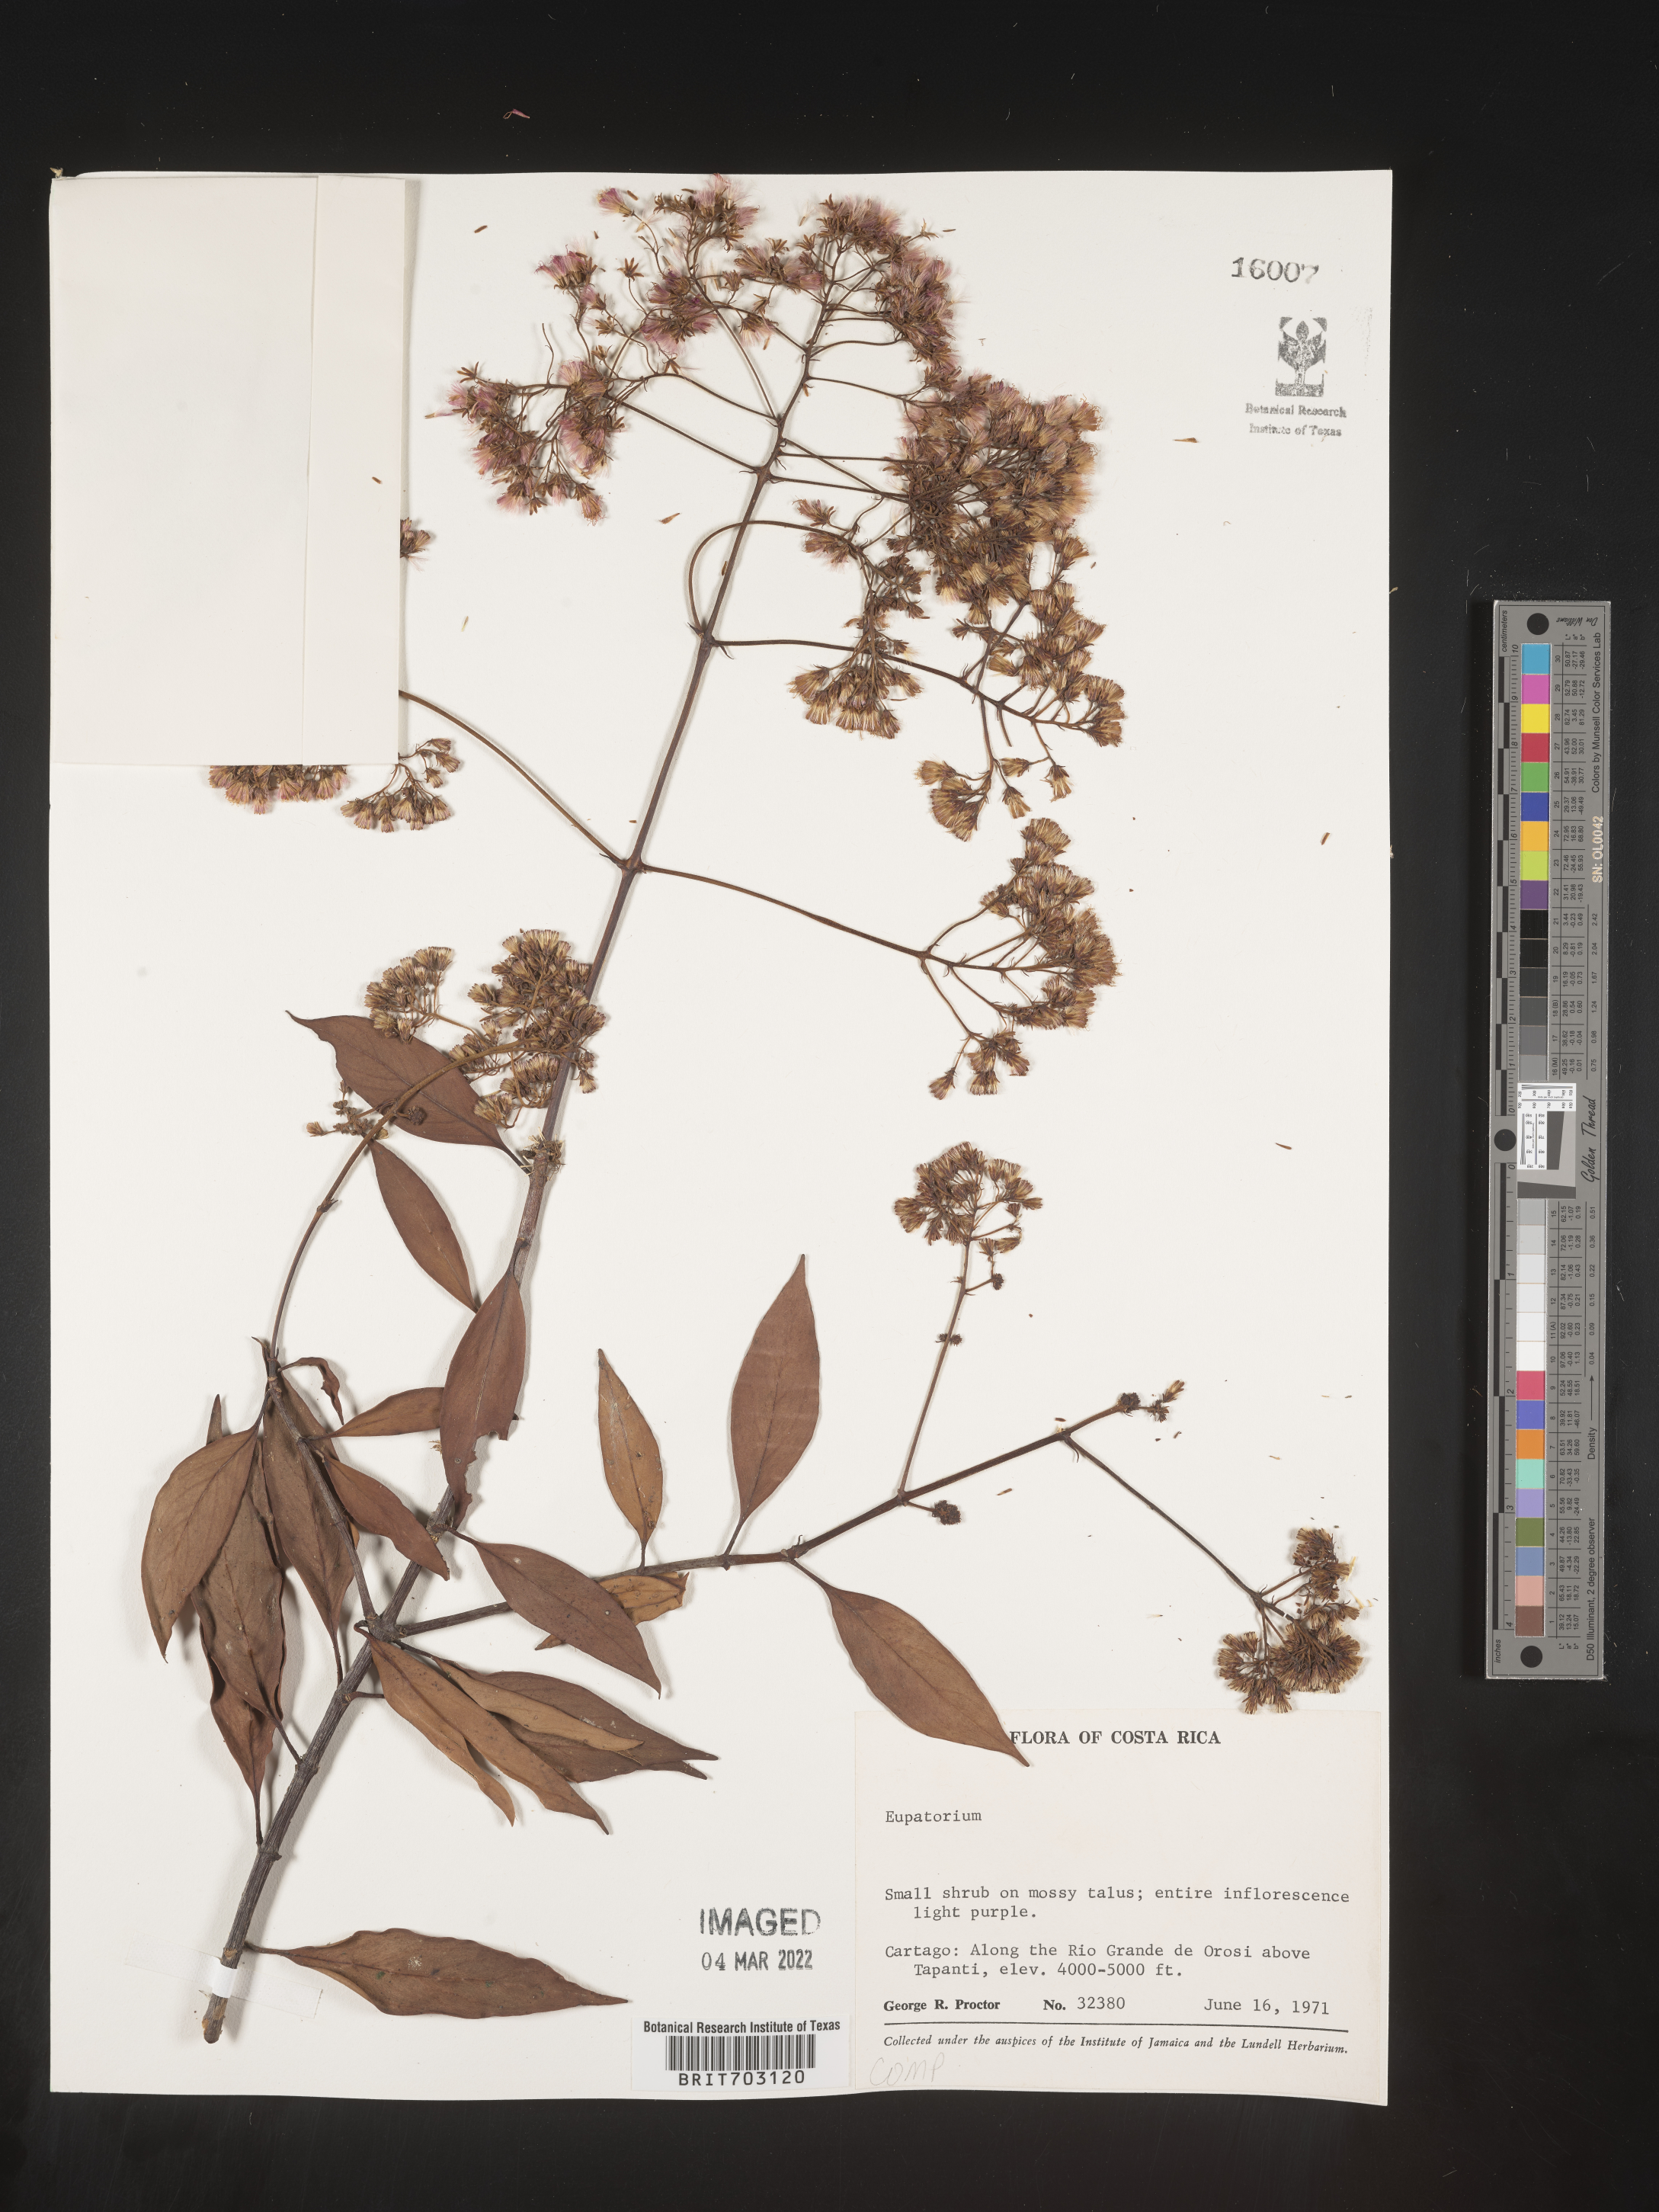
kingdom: Plantae
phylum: Tracheophyta
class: Magnoliopsida
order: Asterales
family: Asteraceae
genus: Eupatorium
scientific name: Eupatorium
